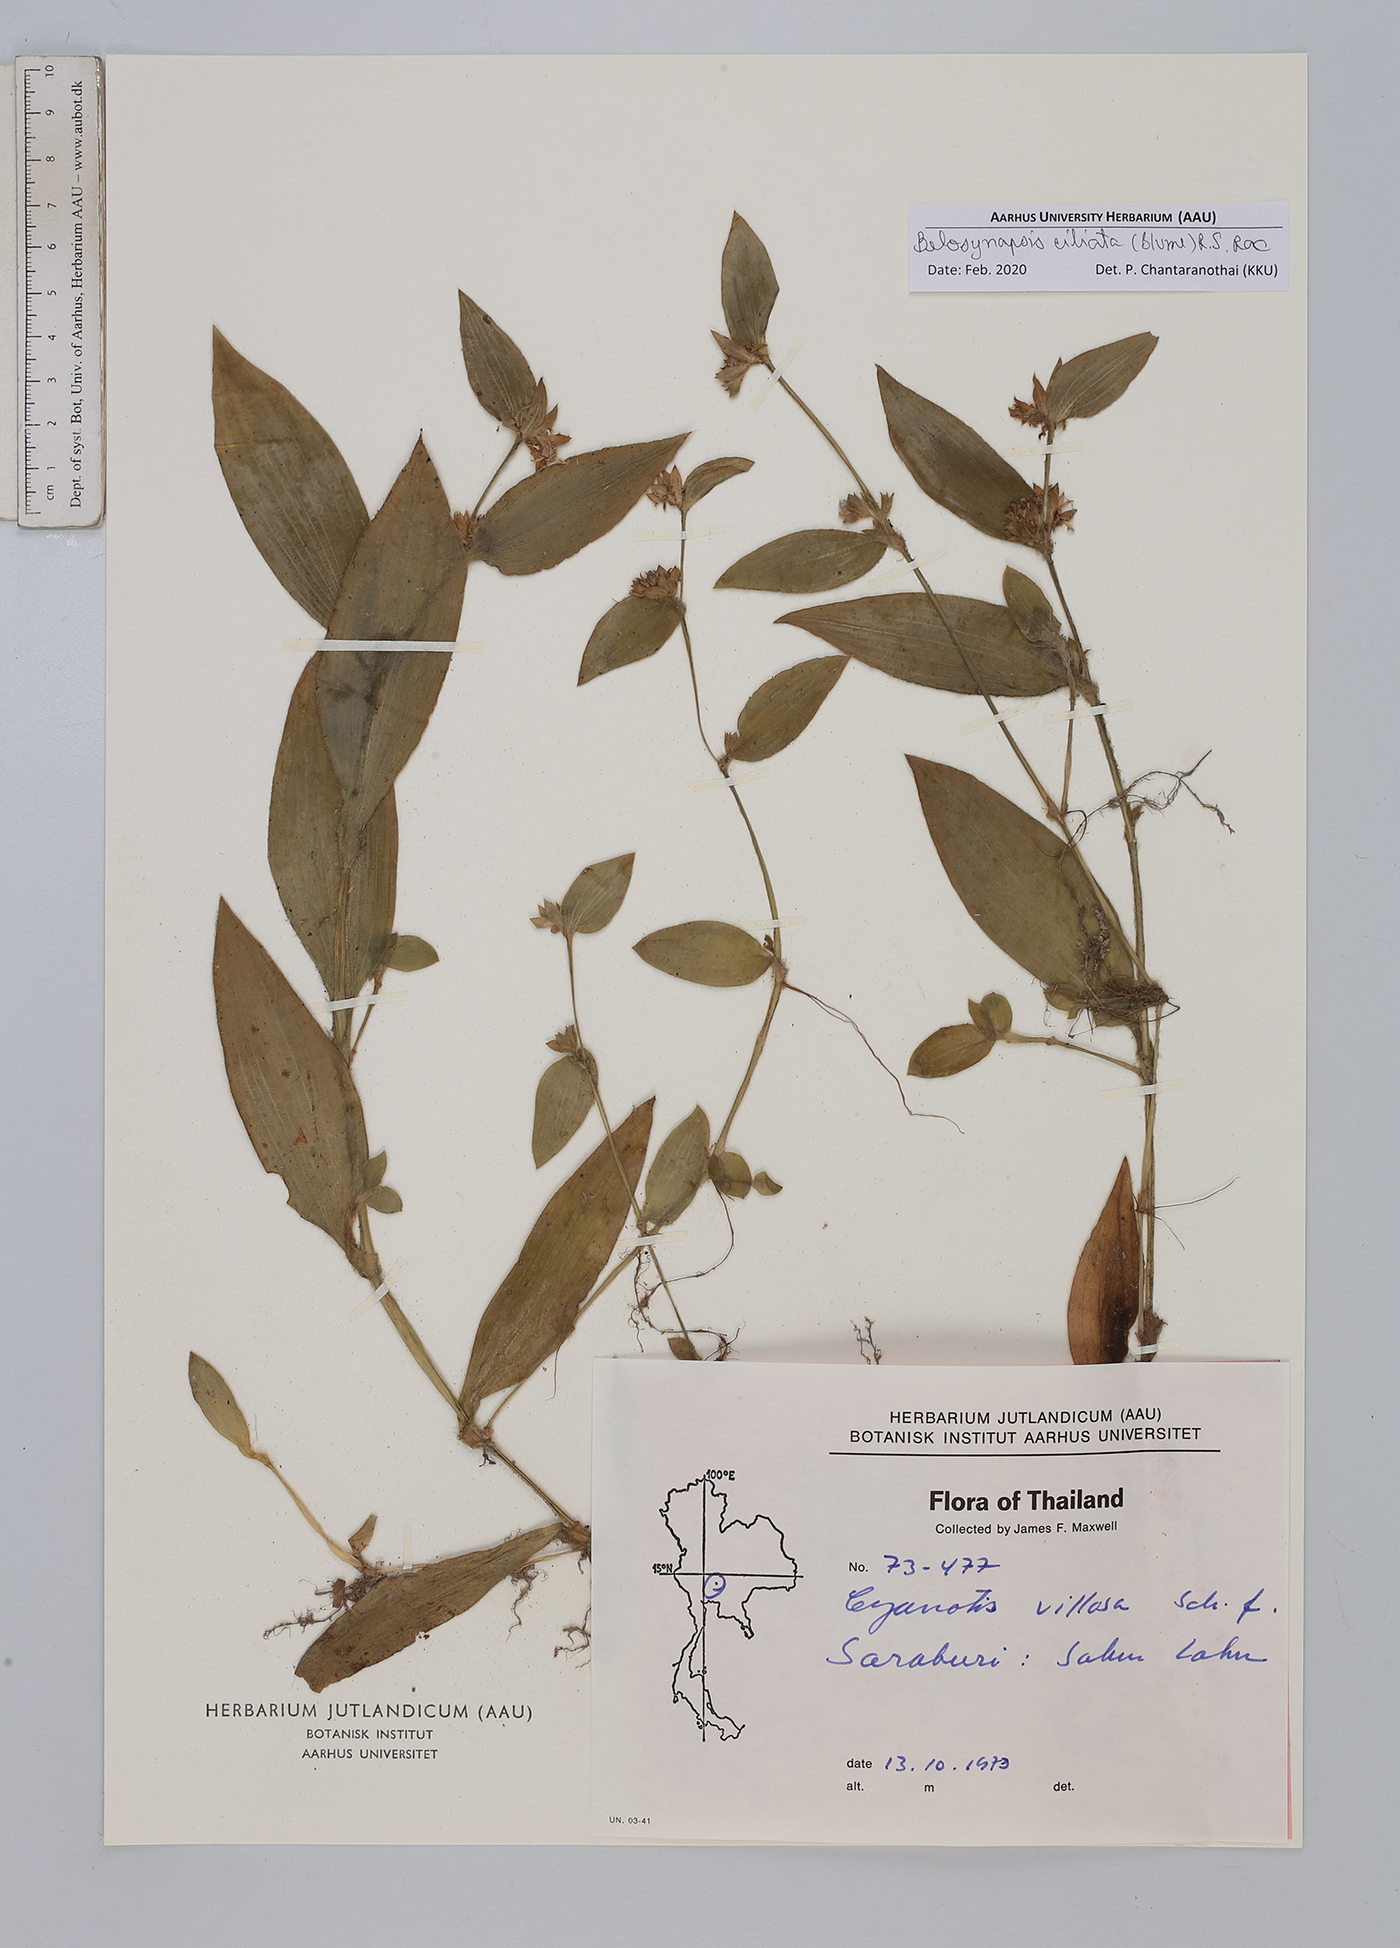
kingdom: Plantae
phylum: Tracheophyta
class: Liliopsida
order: Commelinales
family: Commelinaceae
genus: Cyanotis
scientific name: Cyanotis ciliata
